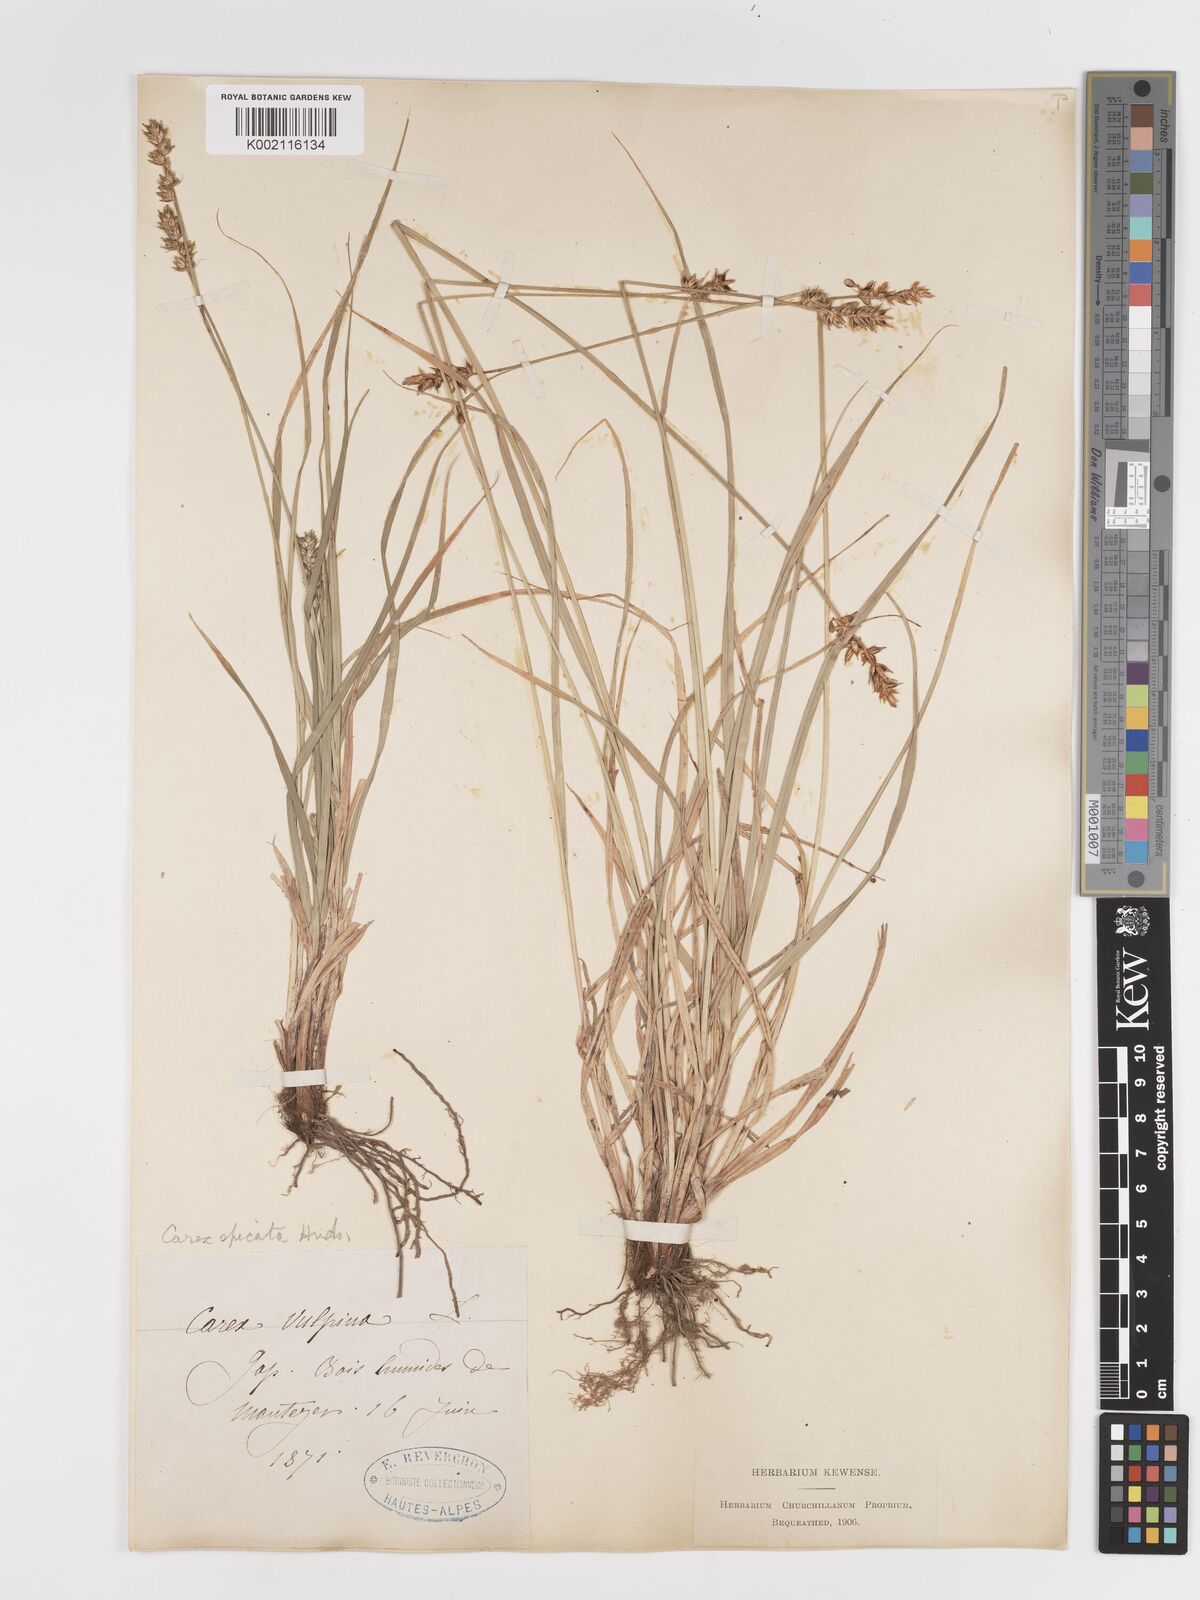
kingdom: Plantae
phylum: Tracheophyta
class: Liliopsida
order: Poales
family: Cyperaceae
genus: Carex
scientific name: Carex spicata
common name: Spiked sedge
